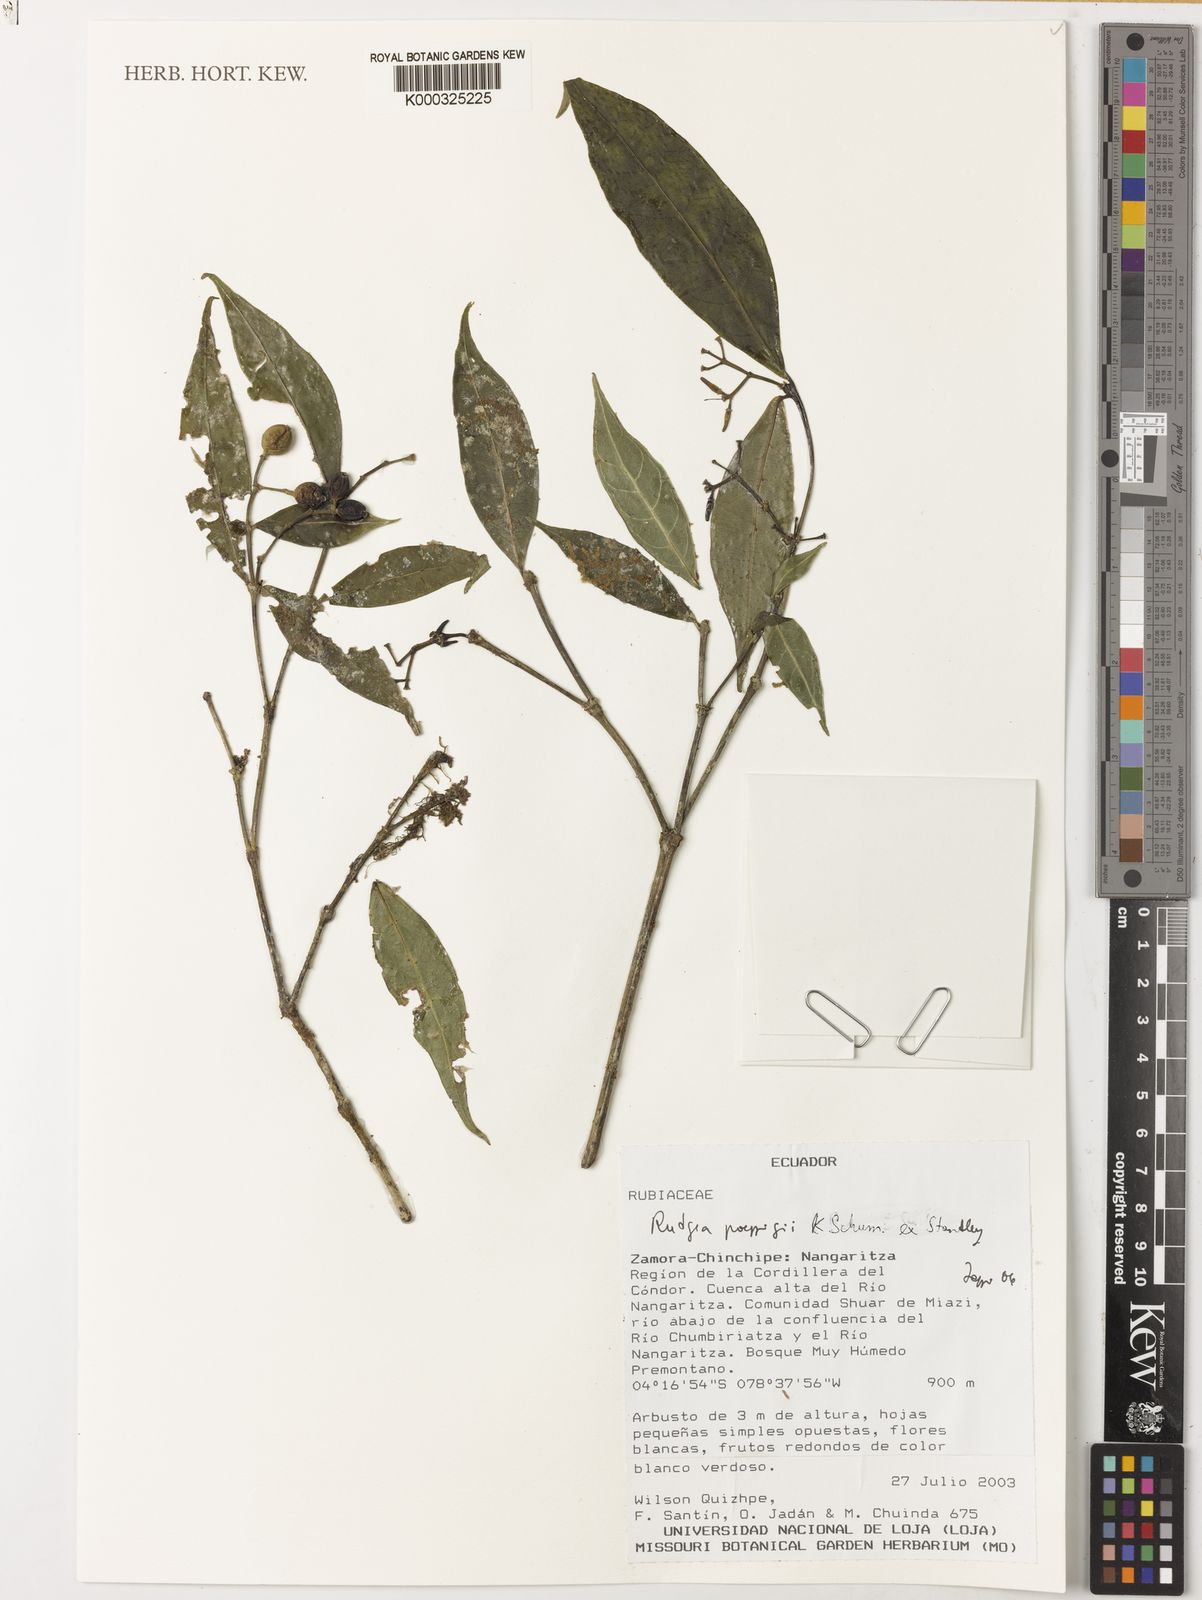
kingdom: Plantae
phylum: Tracheophyta
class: Magnoliopsida
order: Gentianales
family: Rubiaceae
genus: Rudgea
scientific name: Rudgea poeppigii
